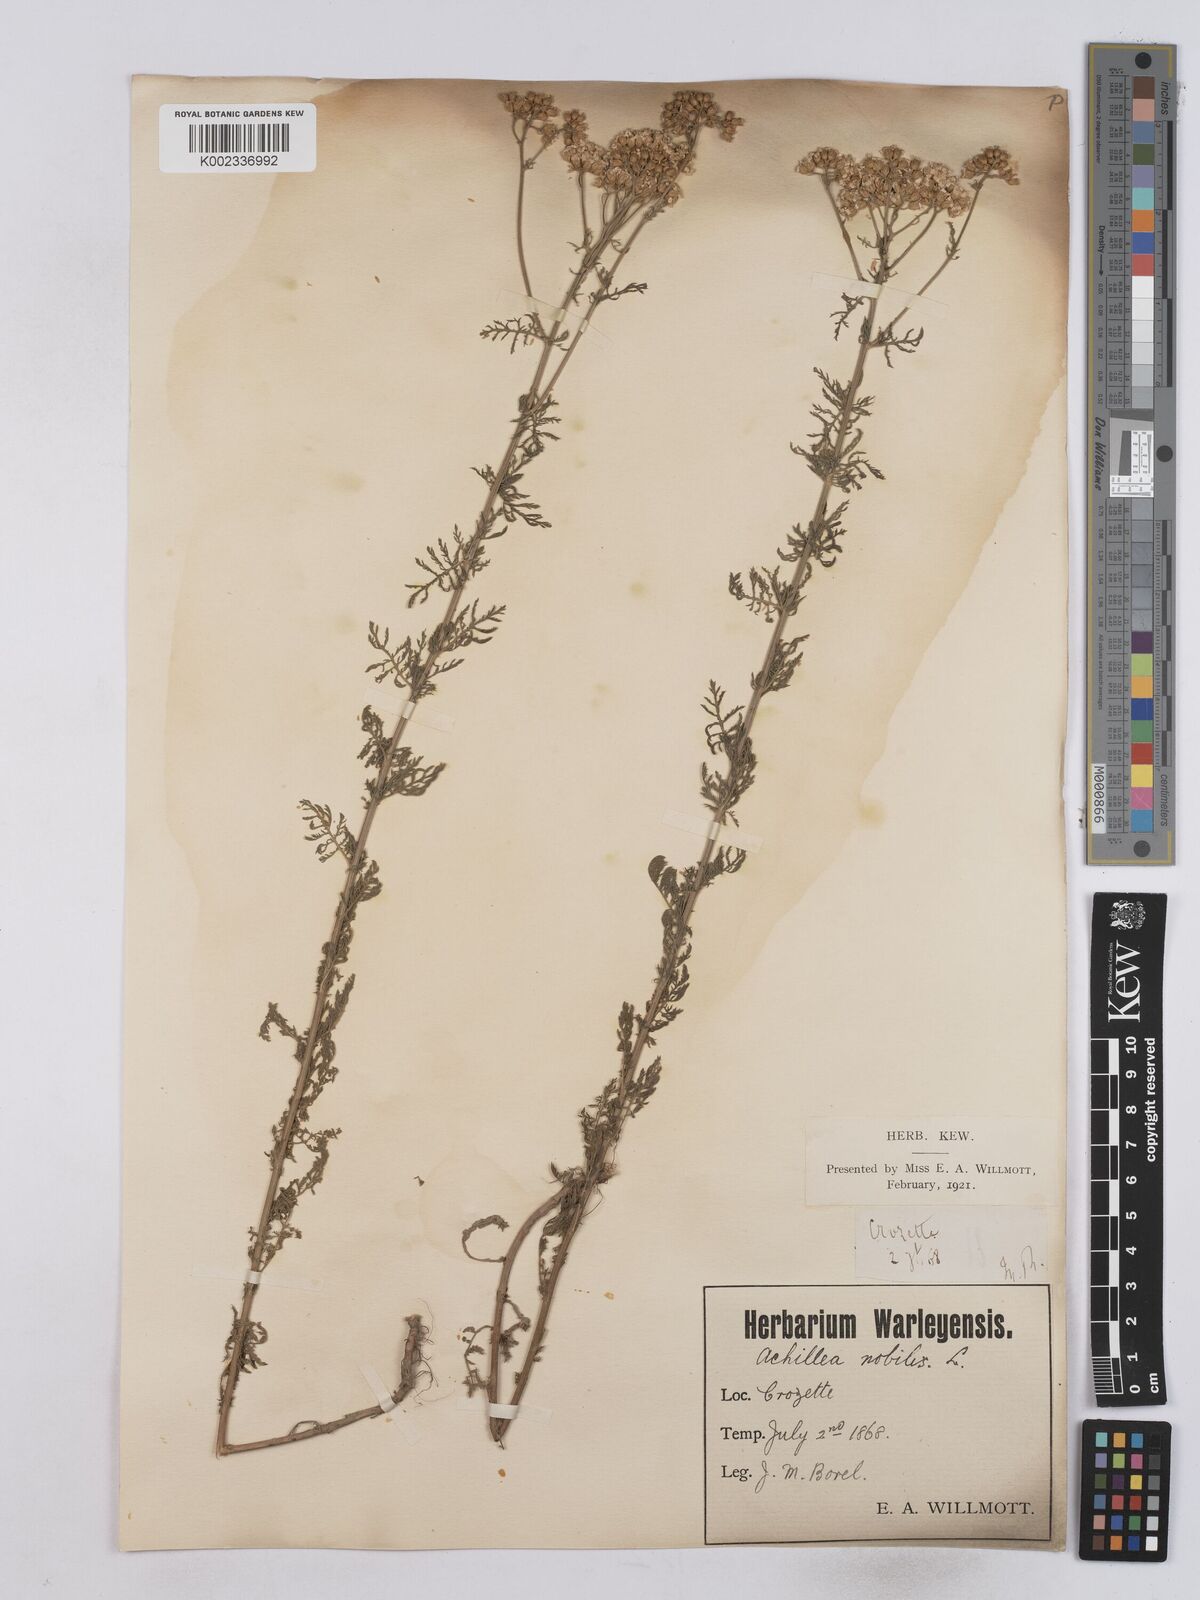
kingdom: Plantae
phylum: Tracheophyta
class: Magnoliopsida
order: Asterales
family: Asteraceae
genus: Achillea
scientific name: Achillea nobilis
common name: Noble yarrow
